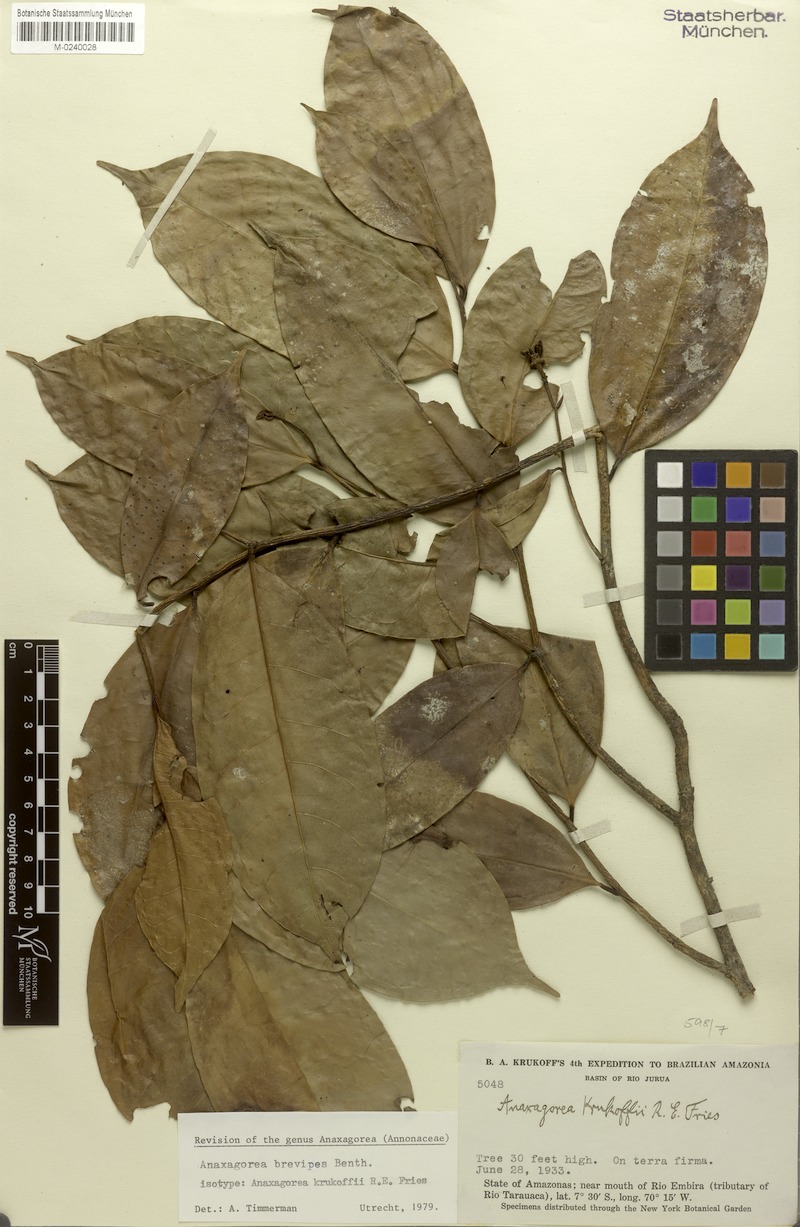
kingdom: Plantae
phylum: Tracheophyta
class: Magnoliopsida
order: Magnoliales
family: Annonaceae
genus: Anaxagorea
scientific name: Anaxagorea brevipes
